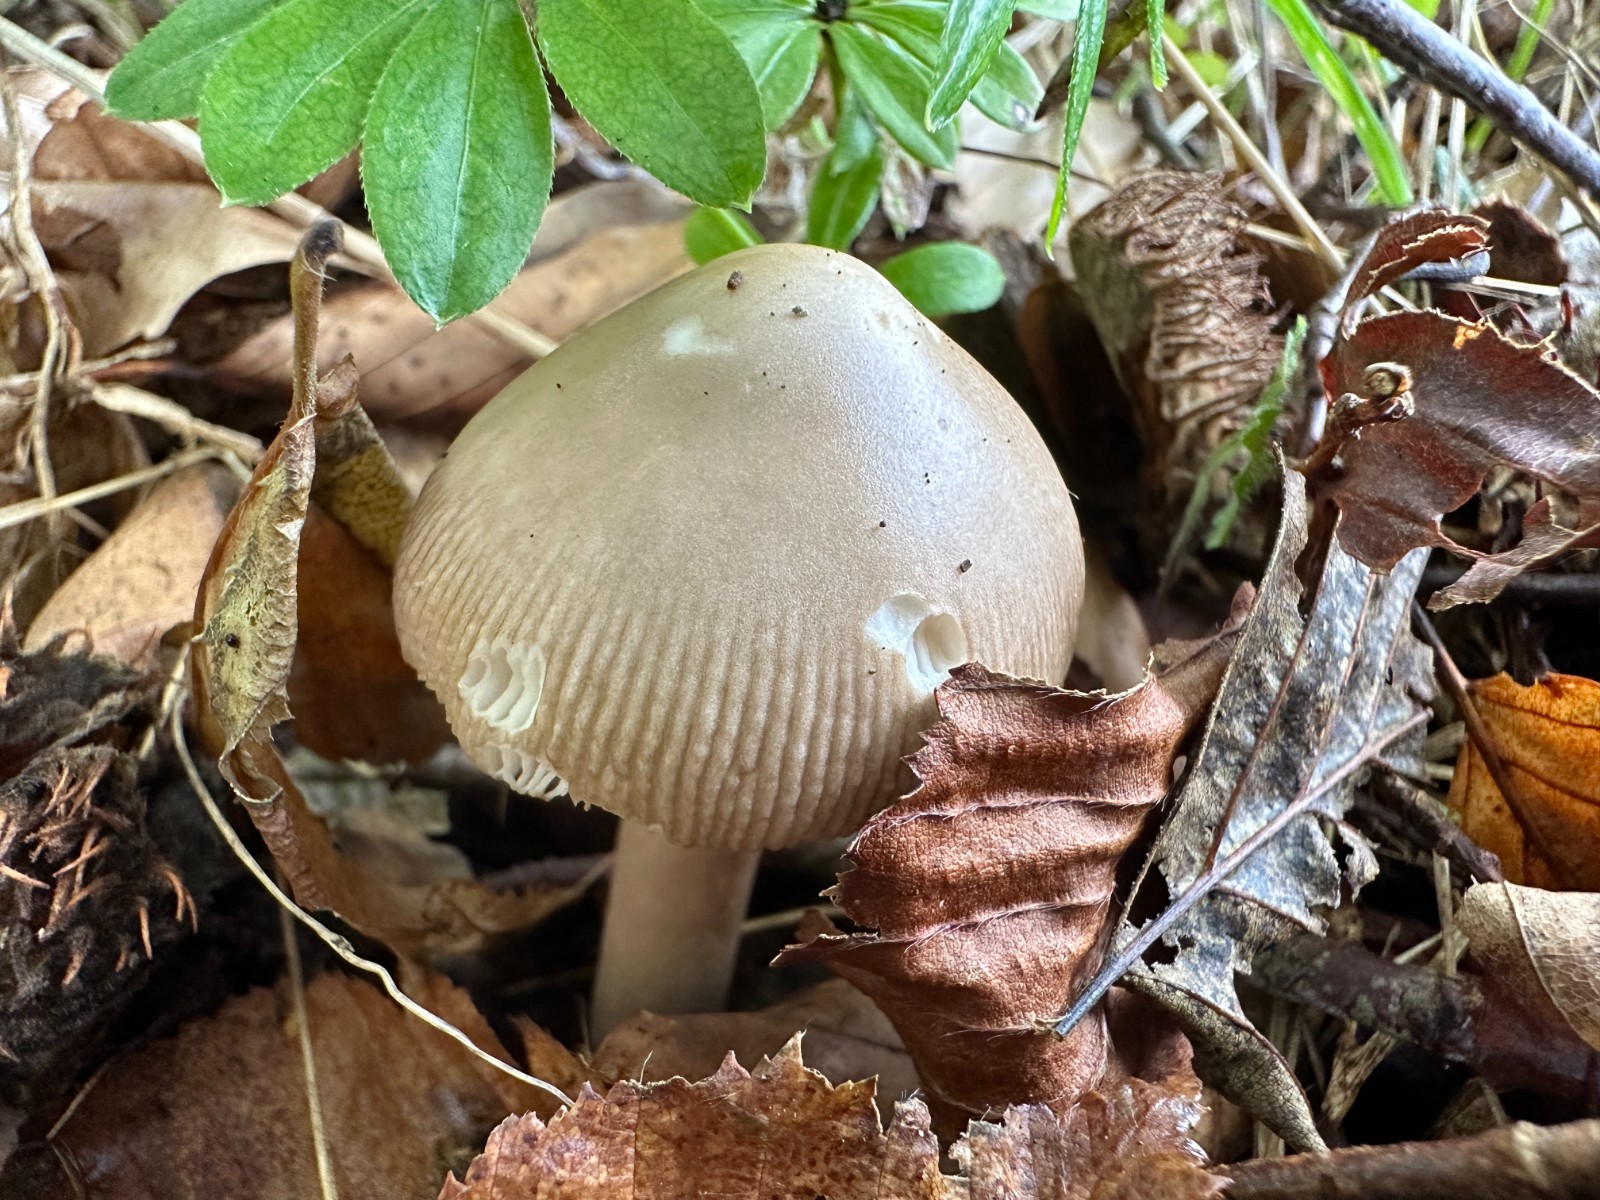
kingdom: Fungi
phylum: Basidiomycota
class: Agaricomycetes
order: Agaricales
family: Amanitaceae
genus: Amanita
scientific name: Amanita
